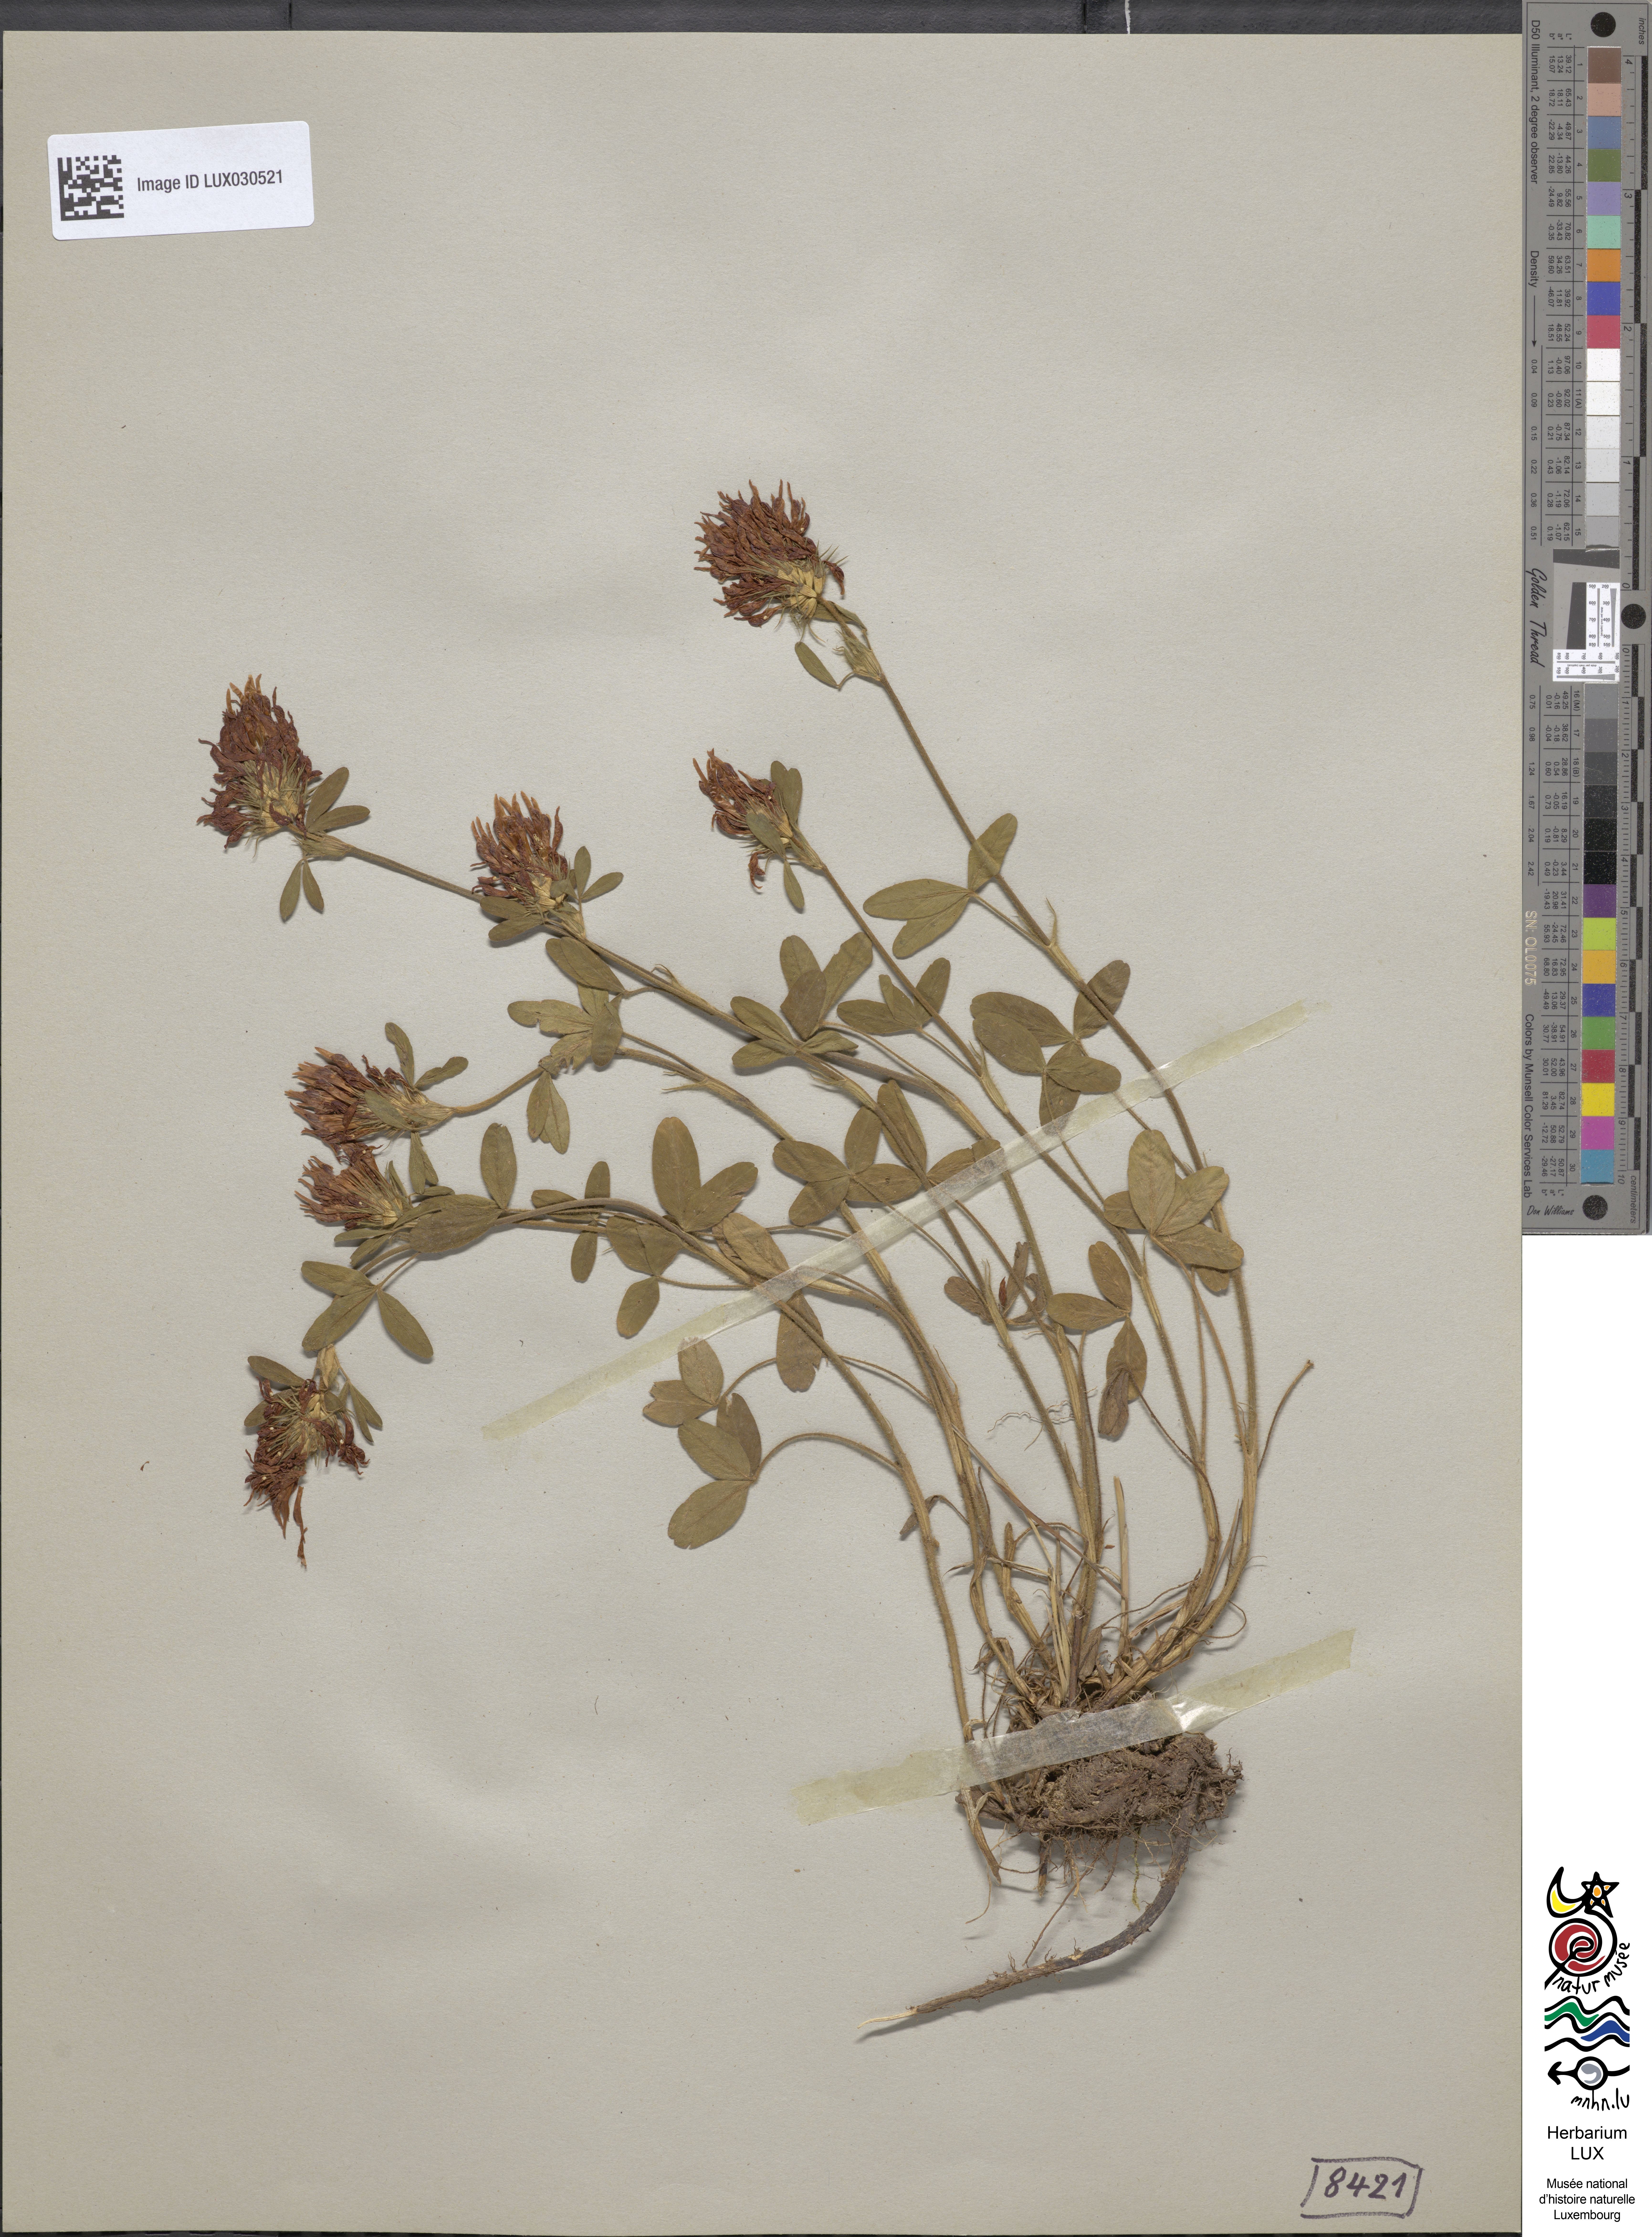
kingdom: Plantae
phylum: Tracheophyta
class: Magnoliopsida
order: Fabales
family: Fabaceae
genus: Trifolium
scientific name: Trifolium ochroleucon
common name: Sulphur clover
